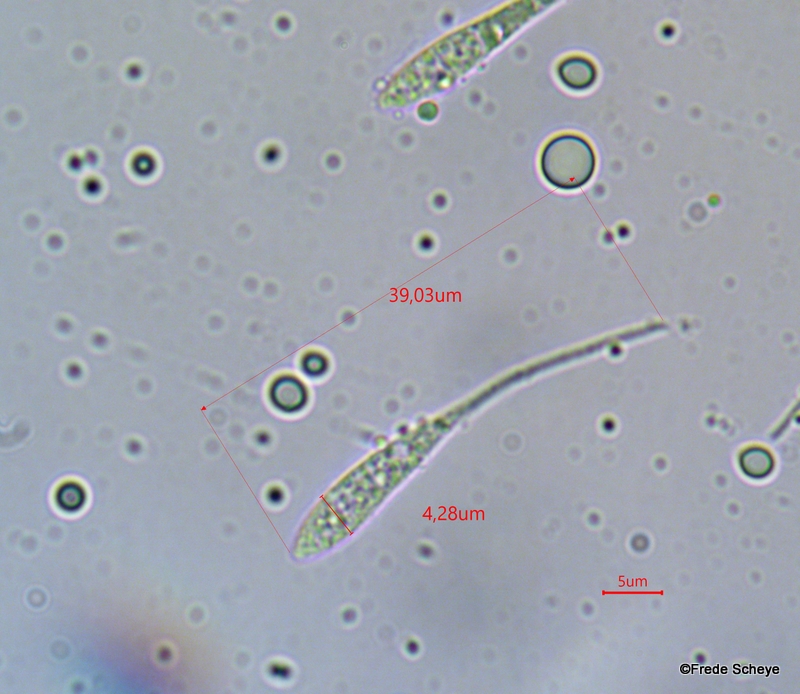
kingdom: Fungi
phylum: Ascomycota
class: Sordariomycetes
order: Amphisphaeriales
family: Amphisphaeriaceae
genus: Ceriospora
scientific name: Ceriospora polygonacearum
